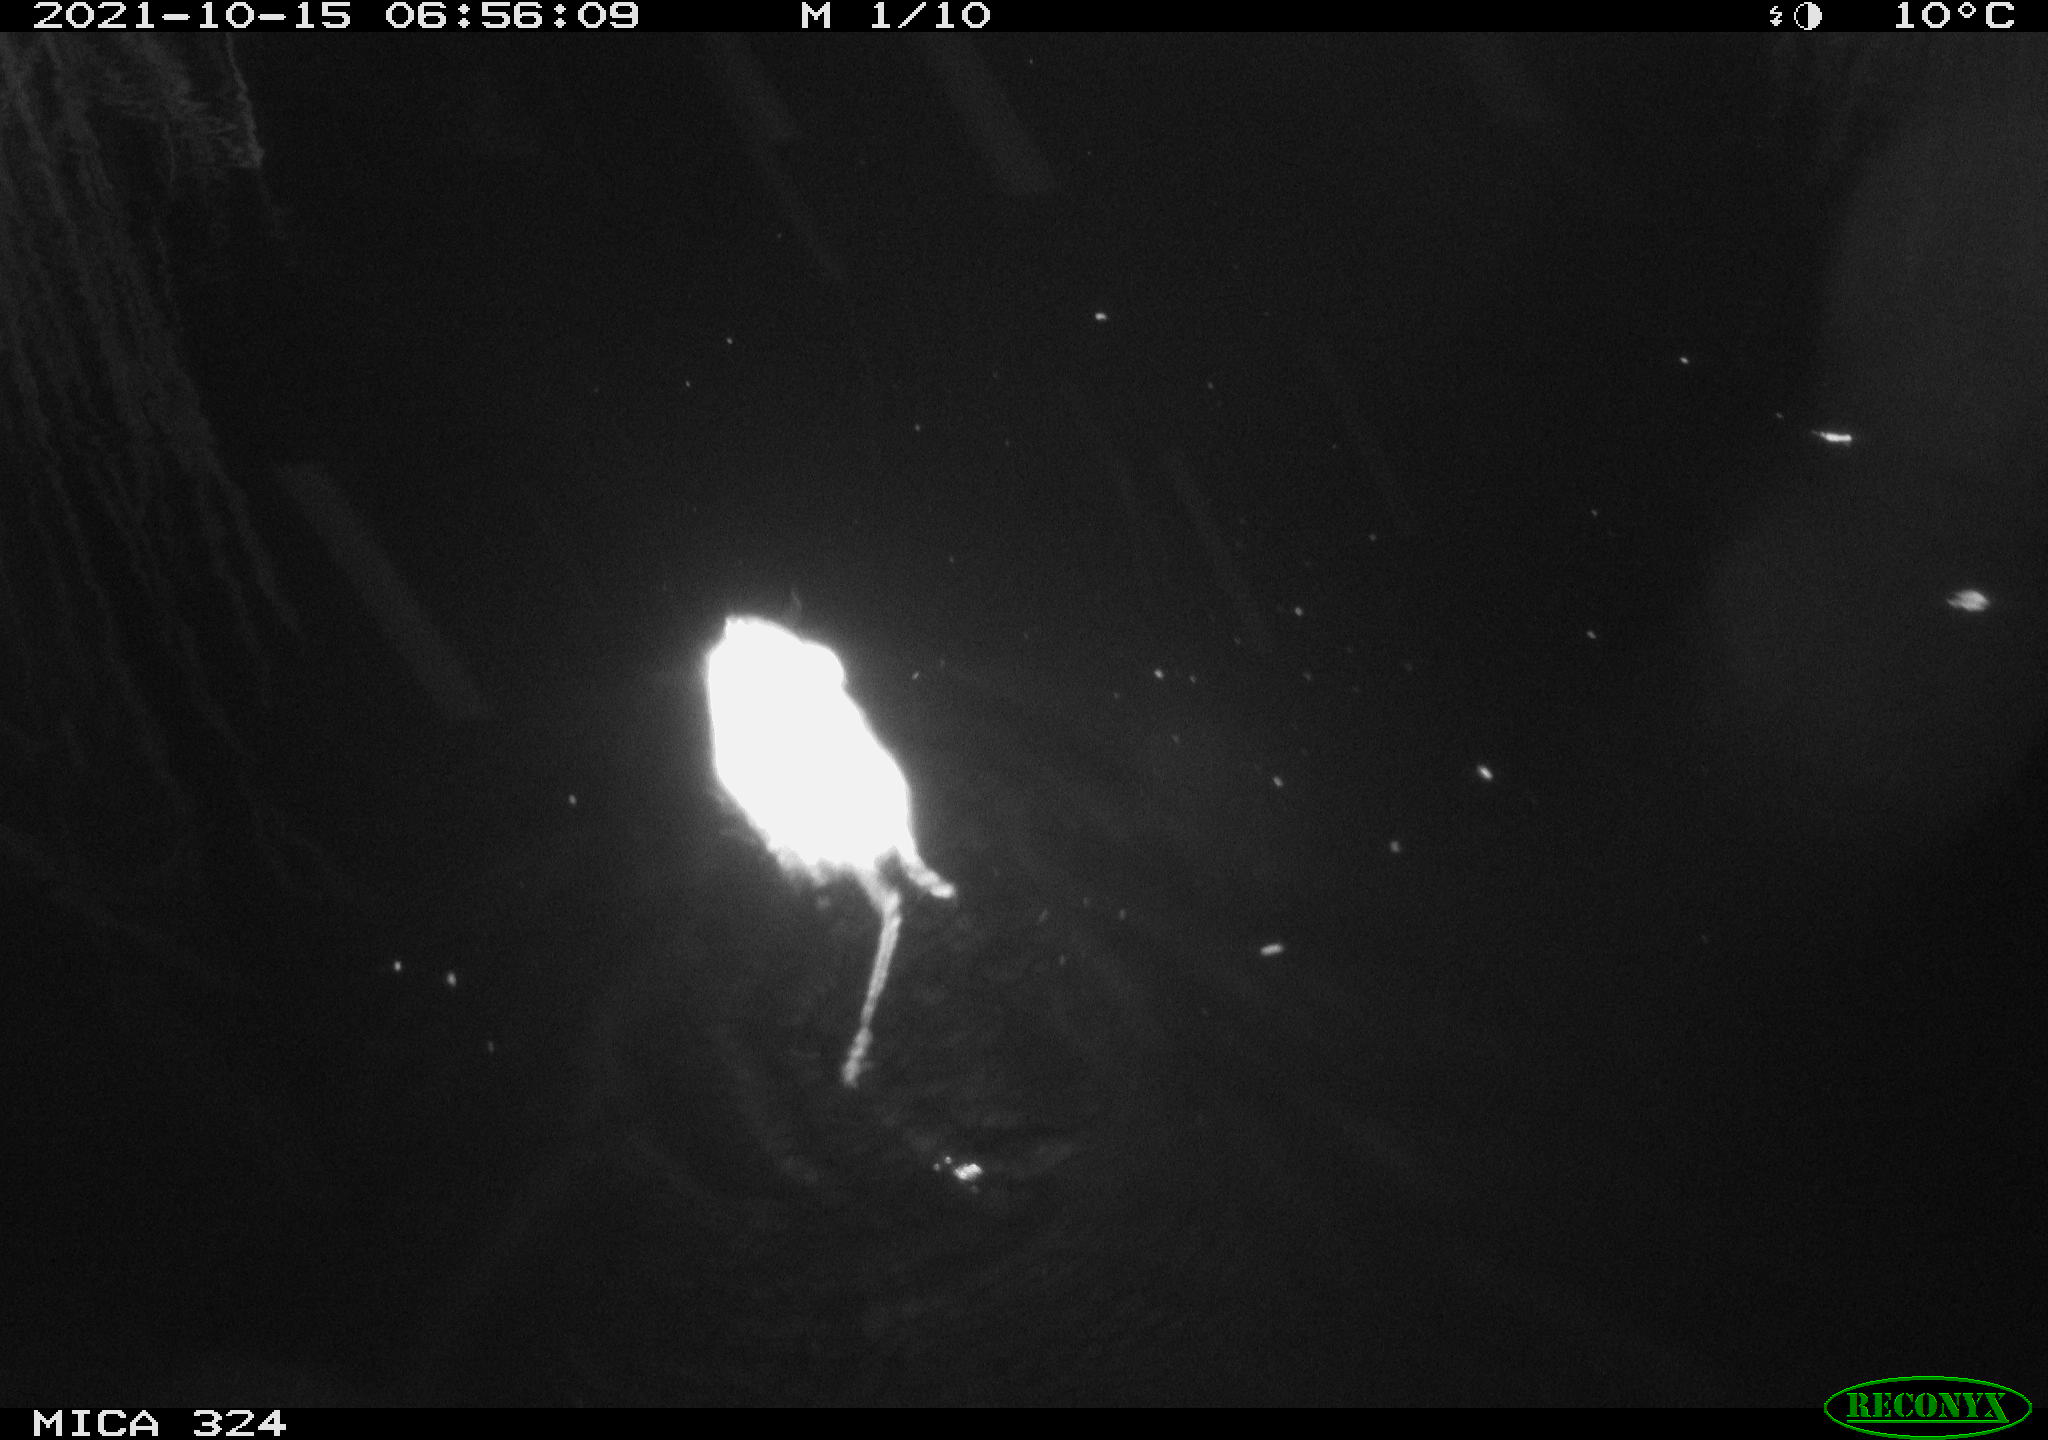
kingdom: Animalia
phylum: Chordata
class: Mammalia
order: Rodentia
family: Cricetidae
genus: Ondatra
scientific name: Ondatra zibethicus
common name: Muskrat
